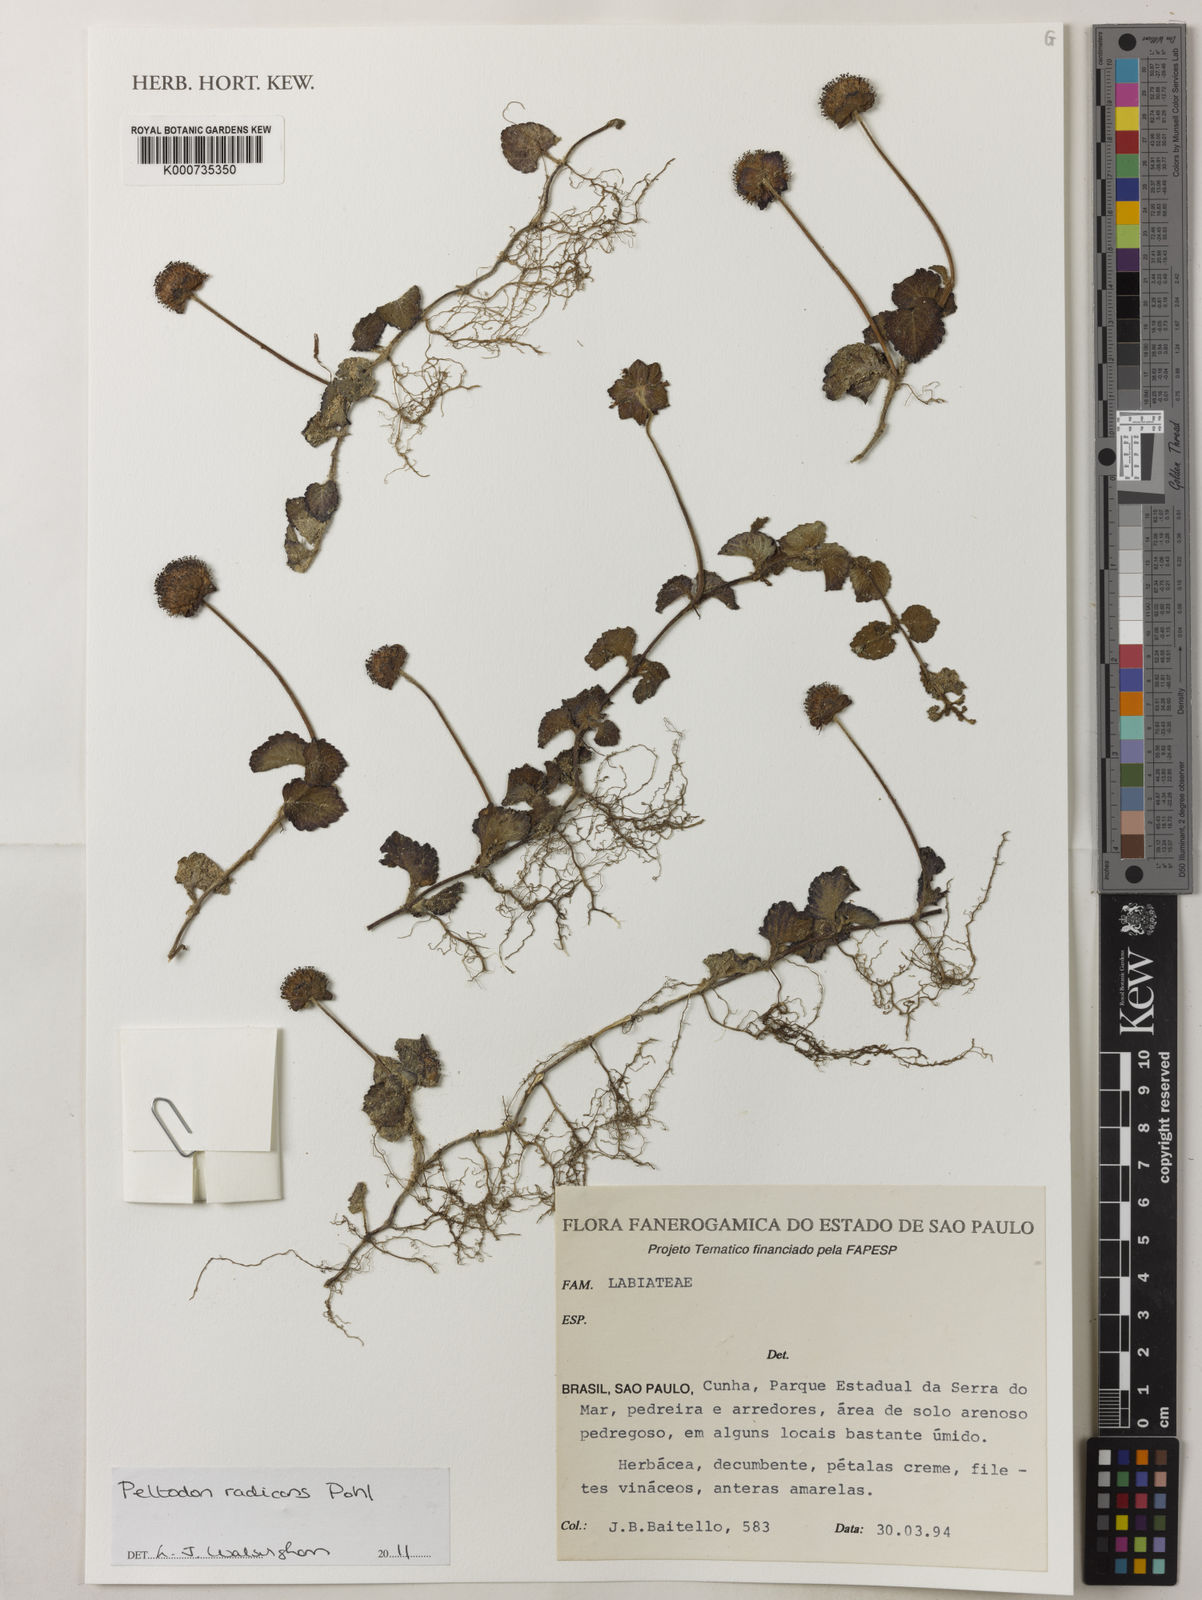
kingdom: Plantae
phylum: Tracheophyta
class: Magnoliopsida
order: Lamiales
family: Lamiaceae
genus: Hyptis
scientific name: Hyptis radicans
